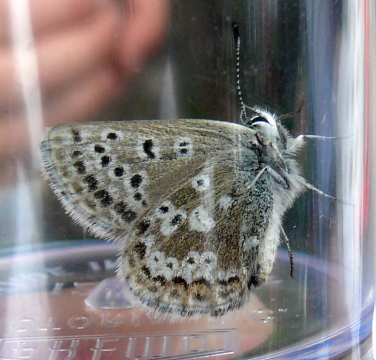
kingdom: Animalia
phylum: Arthropoda
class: Insecta
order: Lepidoptera
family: Lycaenidae
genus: Icaricia
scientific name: Icaricia icarioides
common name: Boisduval's Blue
